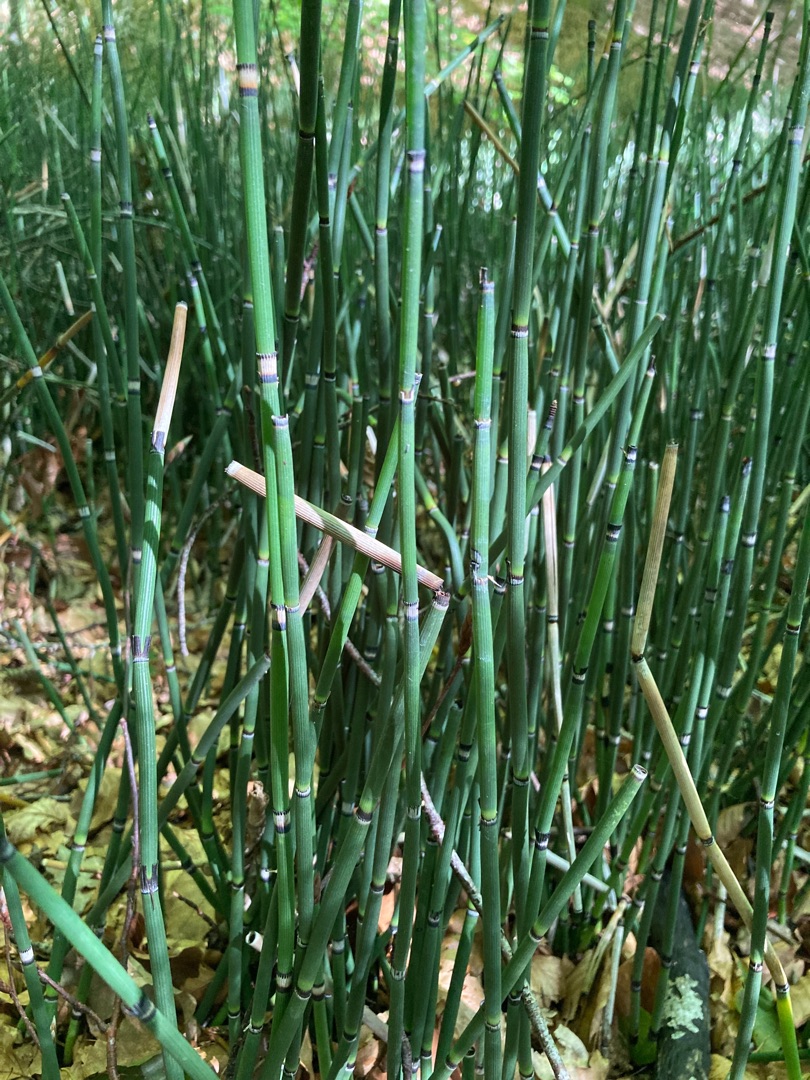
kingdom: Plantae
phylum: Tracheophyta
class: Polypodiopsida
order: Equisetales
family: Equisetaceae
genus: Equisetum
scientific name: Equisetum hyemale
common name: Skavgræs
